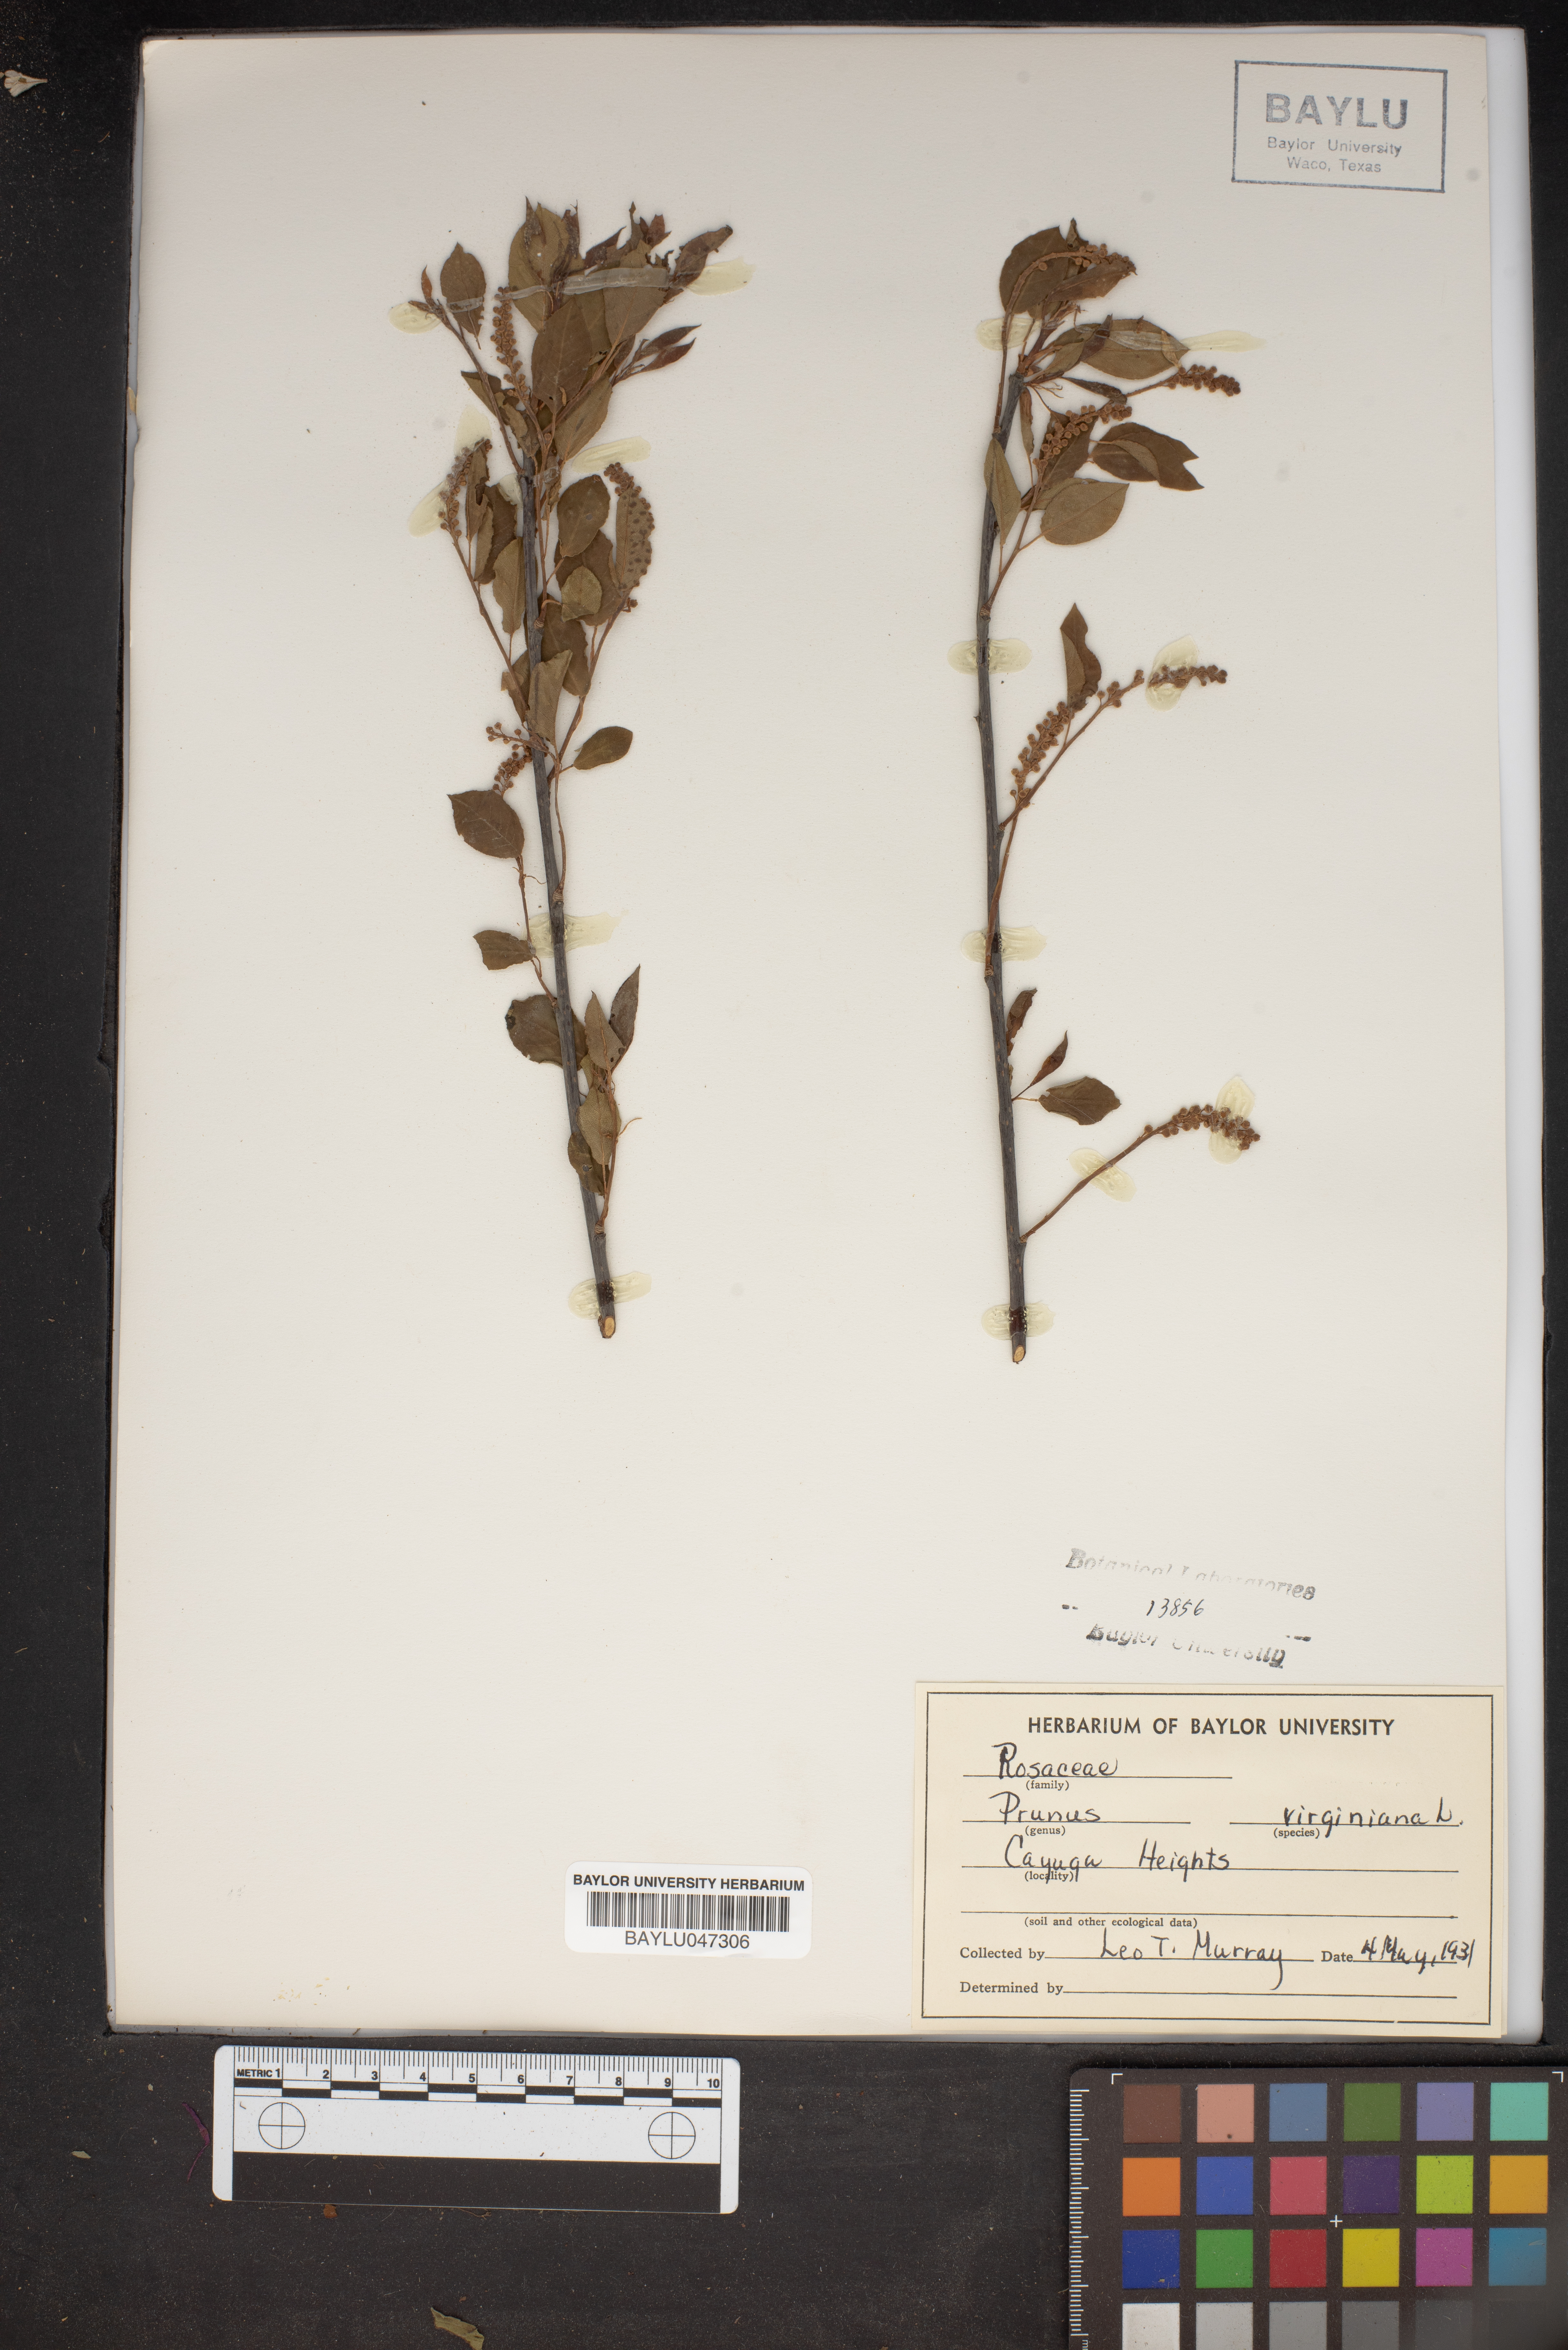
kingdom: Plantae
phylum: Tracheophyta
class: Magnoliopsida
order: Rosales
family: Rosaceae
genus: Prunus
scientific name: Prunus virginiana
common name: Chokecherry
